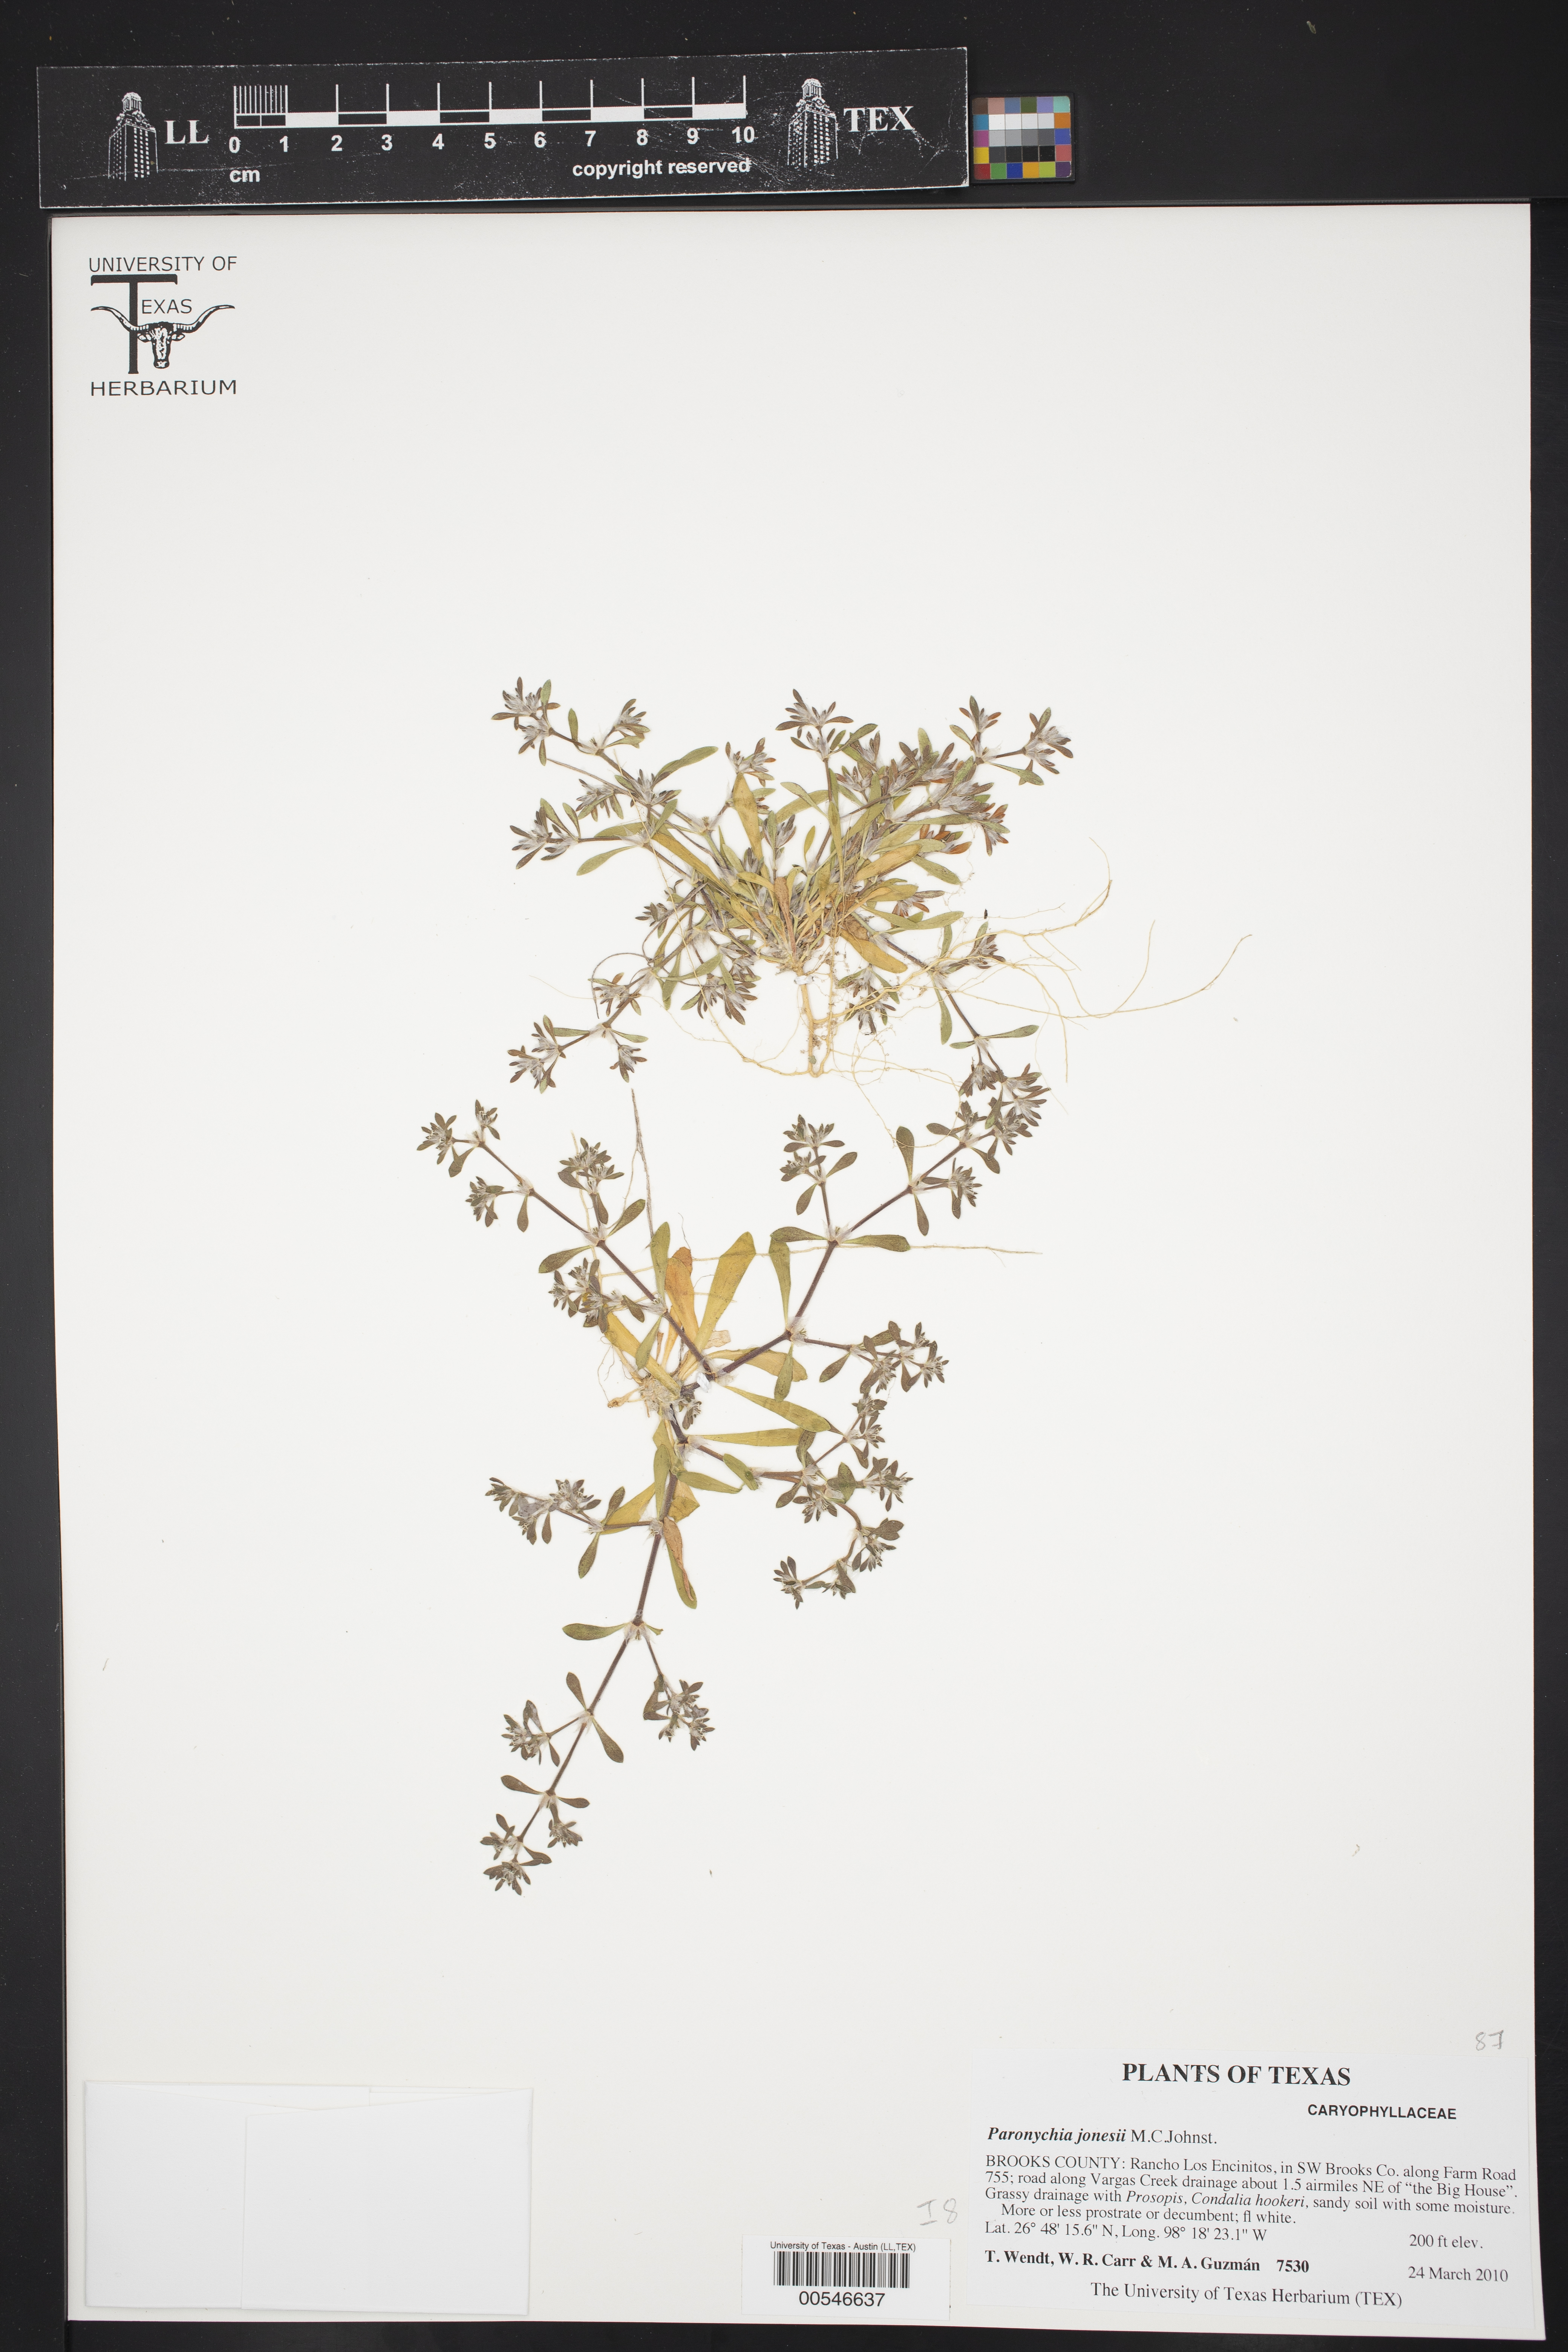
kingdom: Plantae
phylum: Tracheophyta
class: Magnoliopsida
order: Caryophyllales
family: Caryophyllaceae
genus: Paronychia
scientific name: Paronychia jonesii
